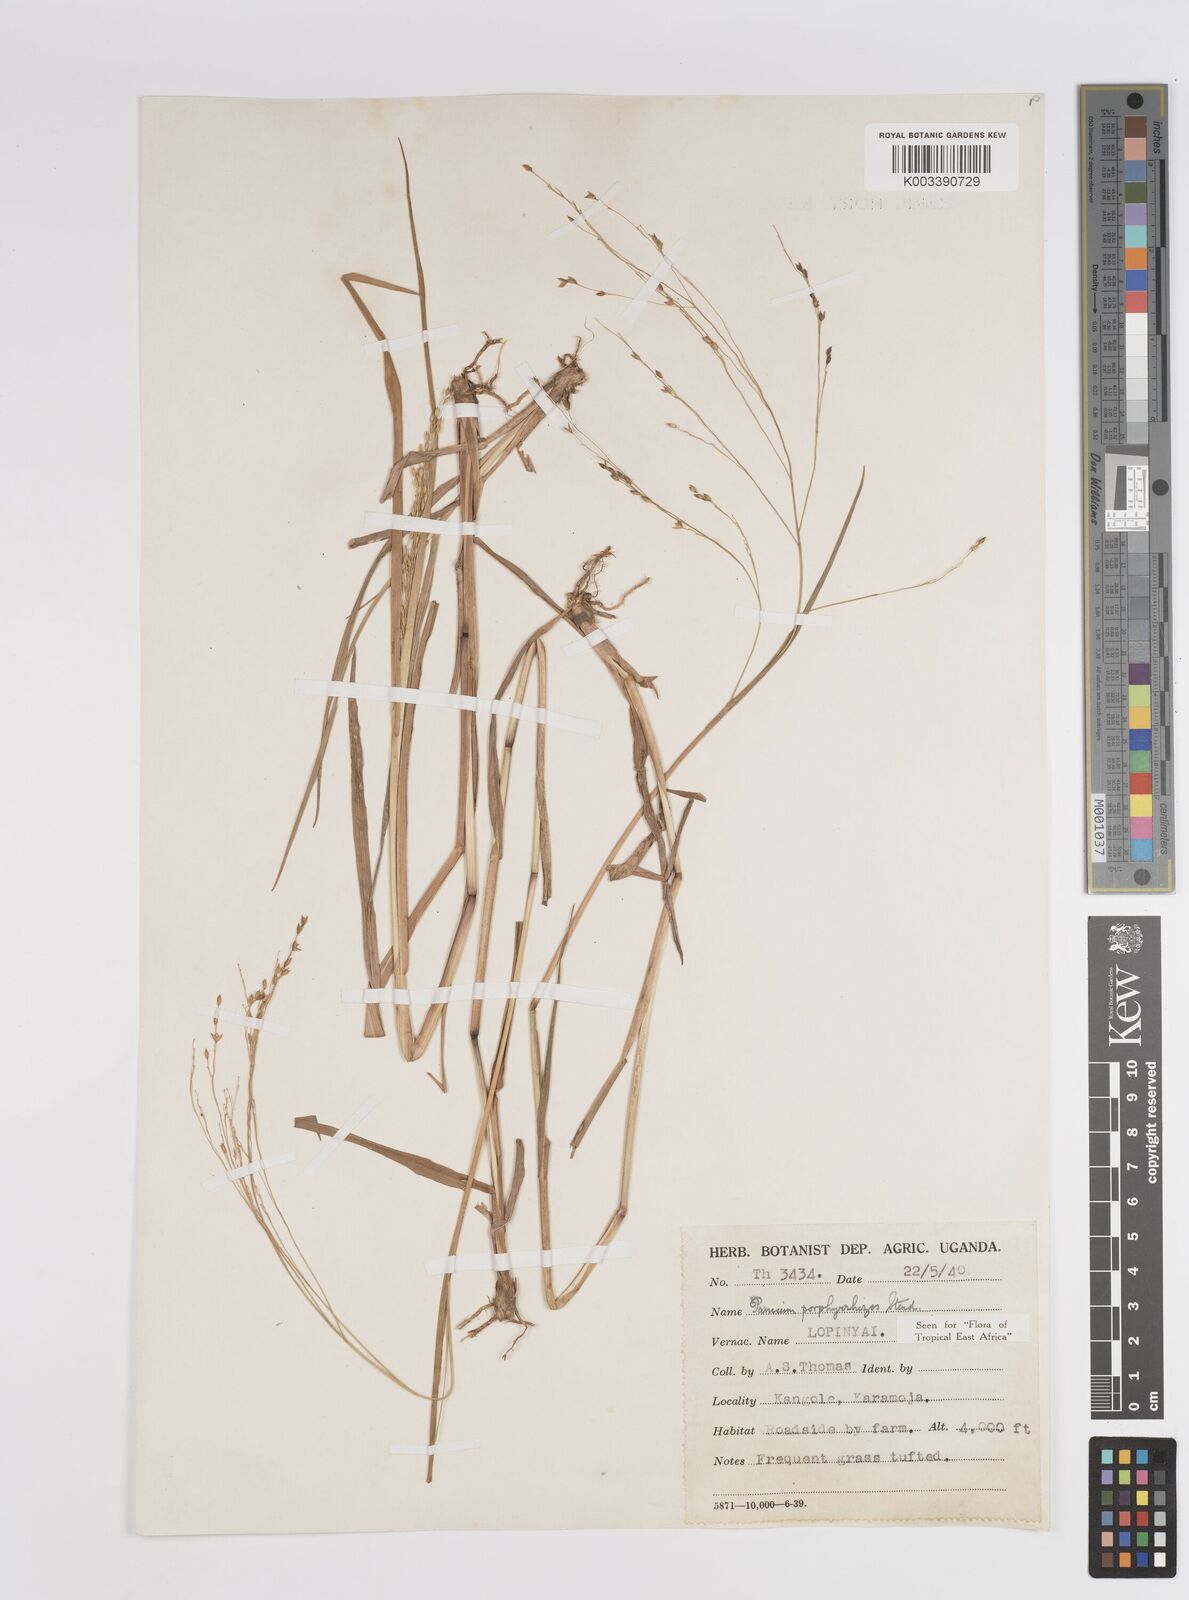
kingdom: Plantae
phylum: Tracheophyta
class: Liliopsida
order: Poales
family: Poaceae
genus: Panicum
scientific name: Panicum porphyrrhizos
